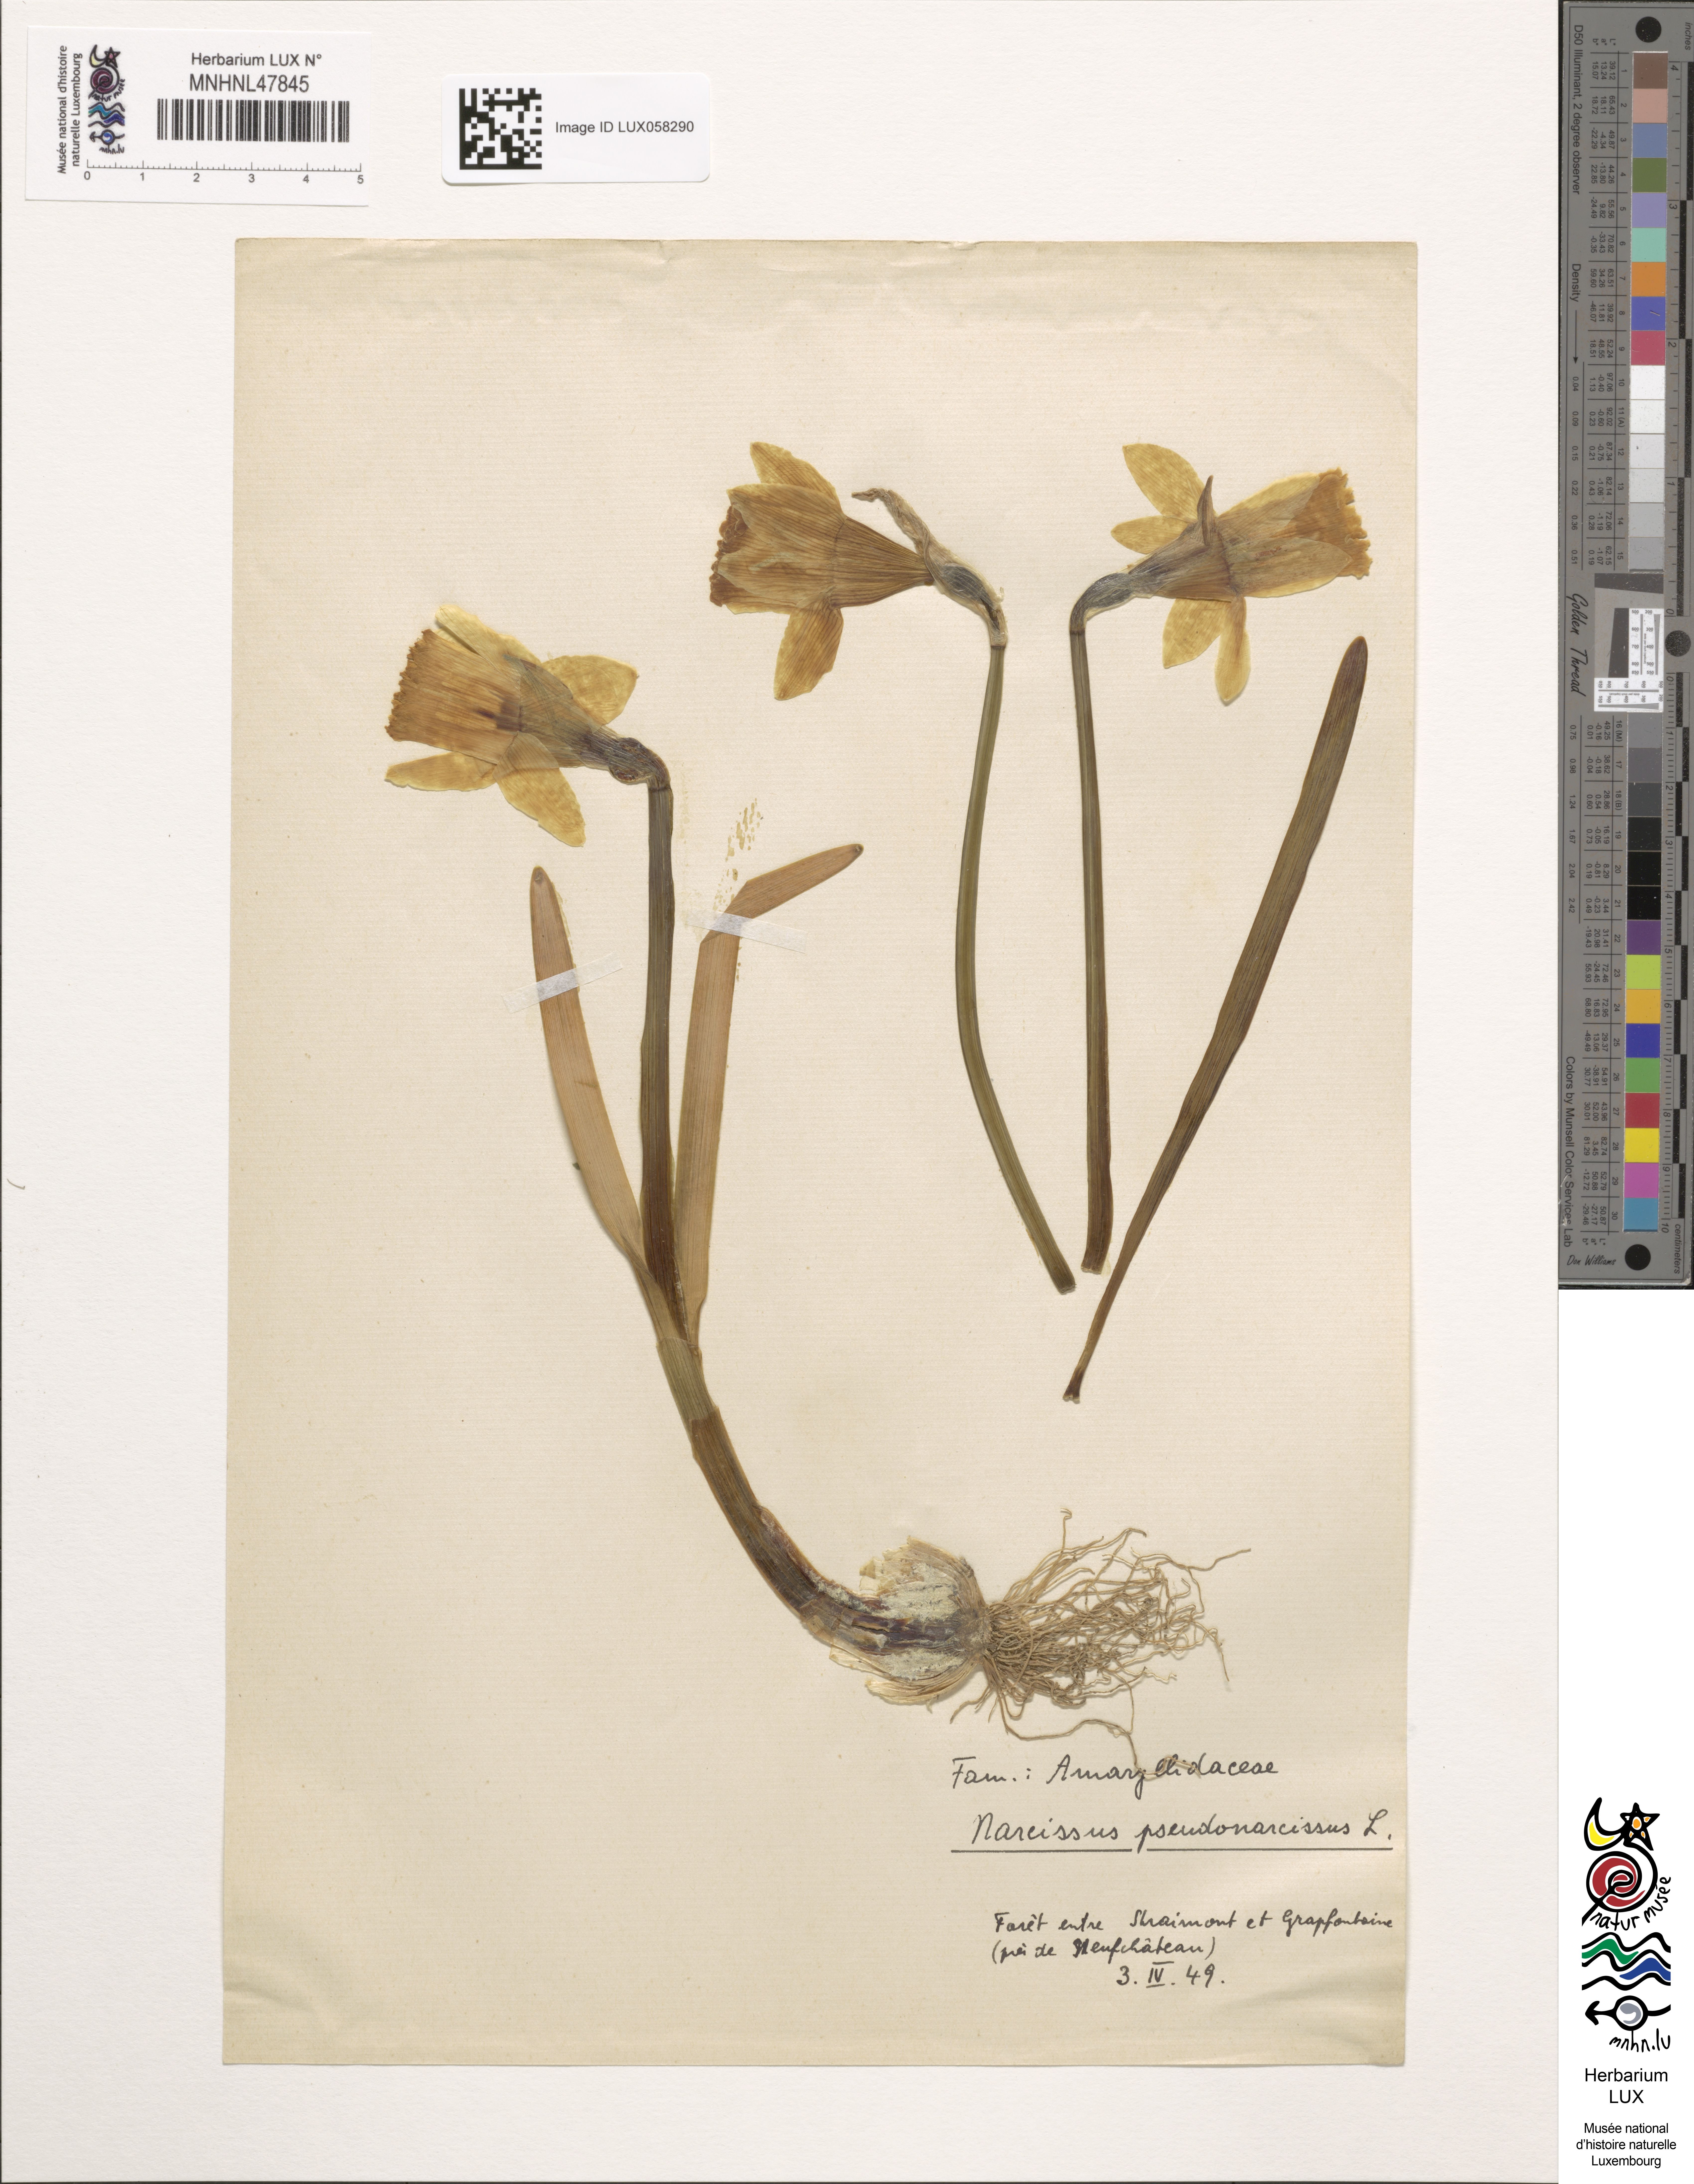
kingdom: Plantae
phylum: Tracheophyta
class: Liliopsida
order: Asparagales
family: Amaryllidaceae
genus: Narcissus
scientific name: Narcissus pseudonarcissus
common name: Daffodil
